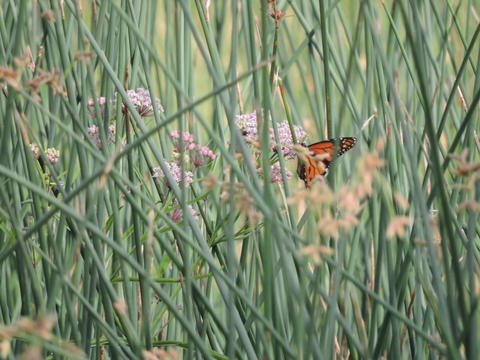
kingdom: Animalia
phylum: Arthropoda
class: Insecta
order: Lepidoptera
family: Nymphalidae
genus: Danaus
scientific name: Danaus plexippus
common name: Monarch
